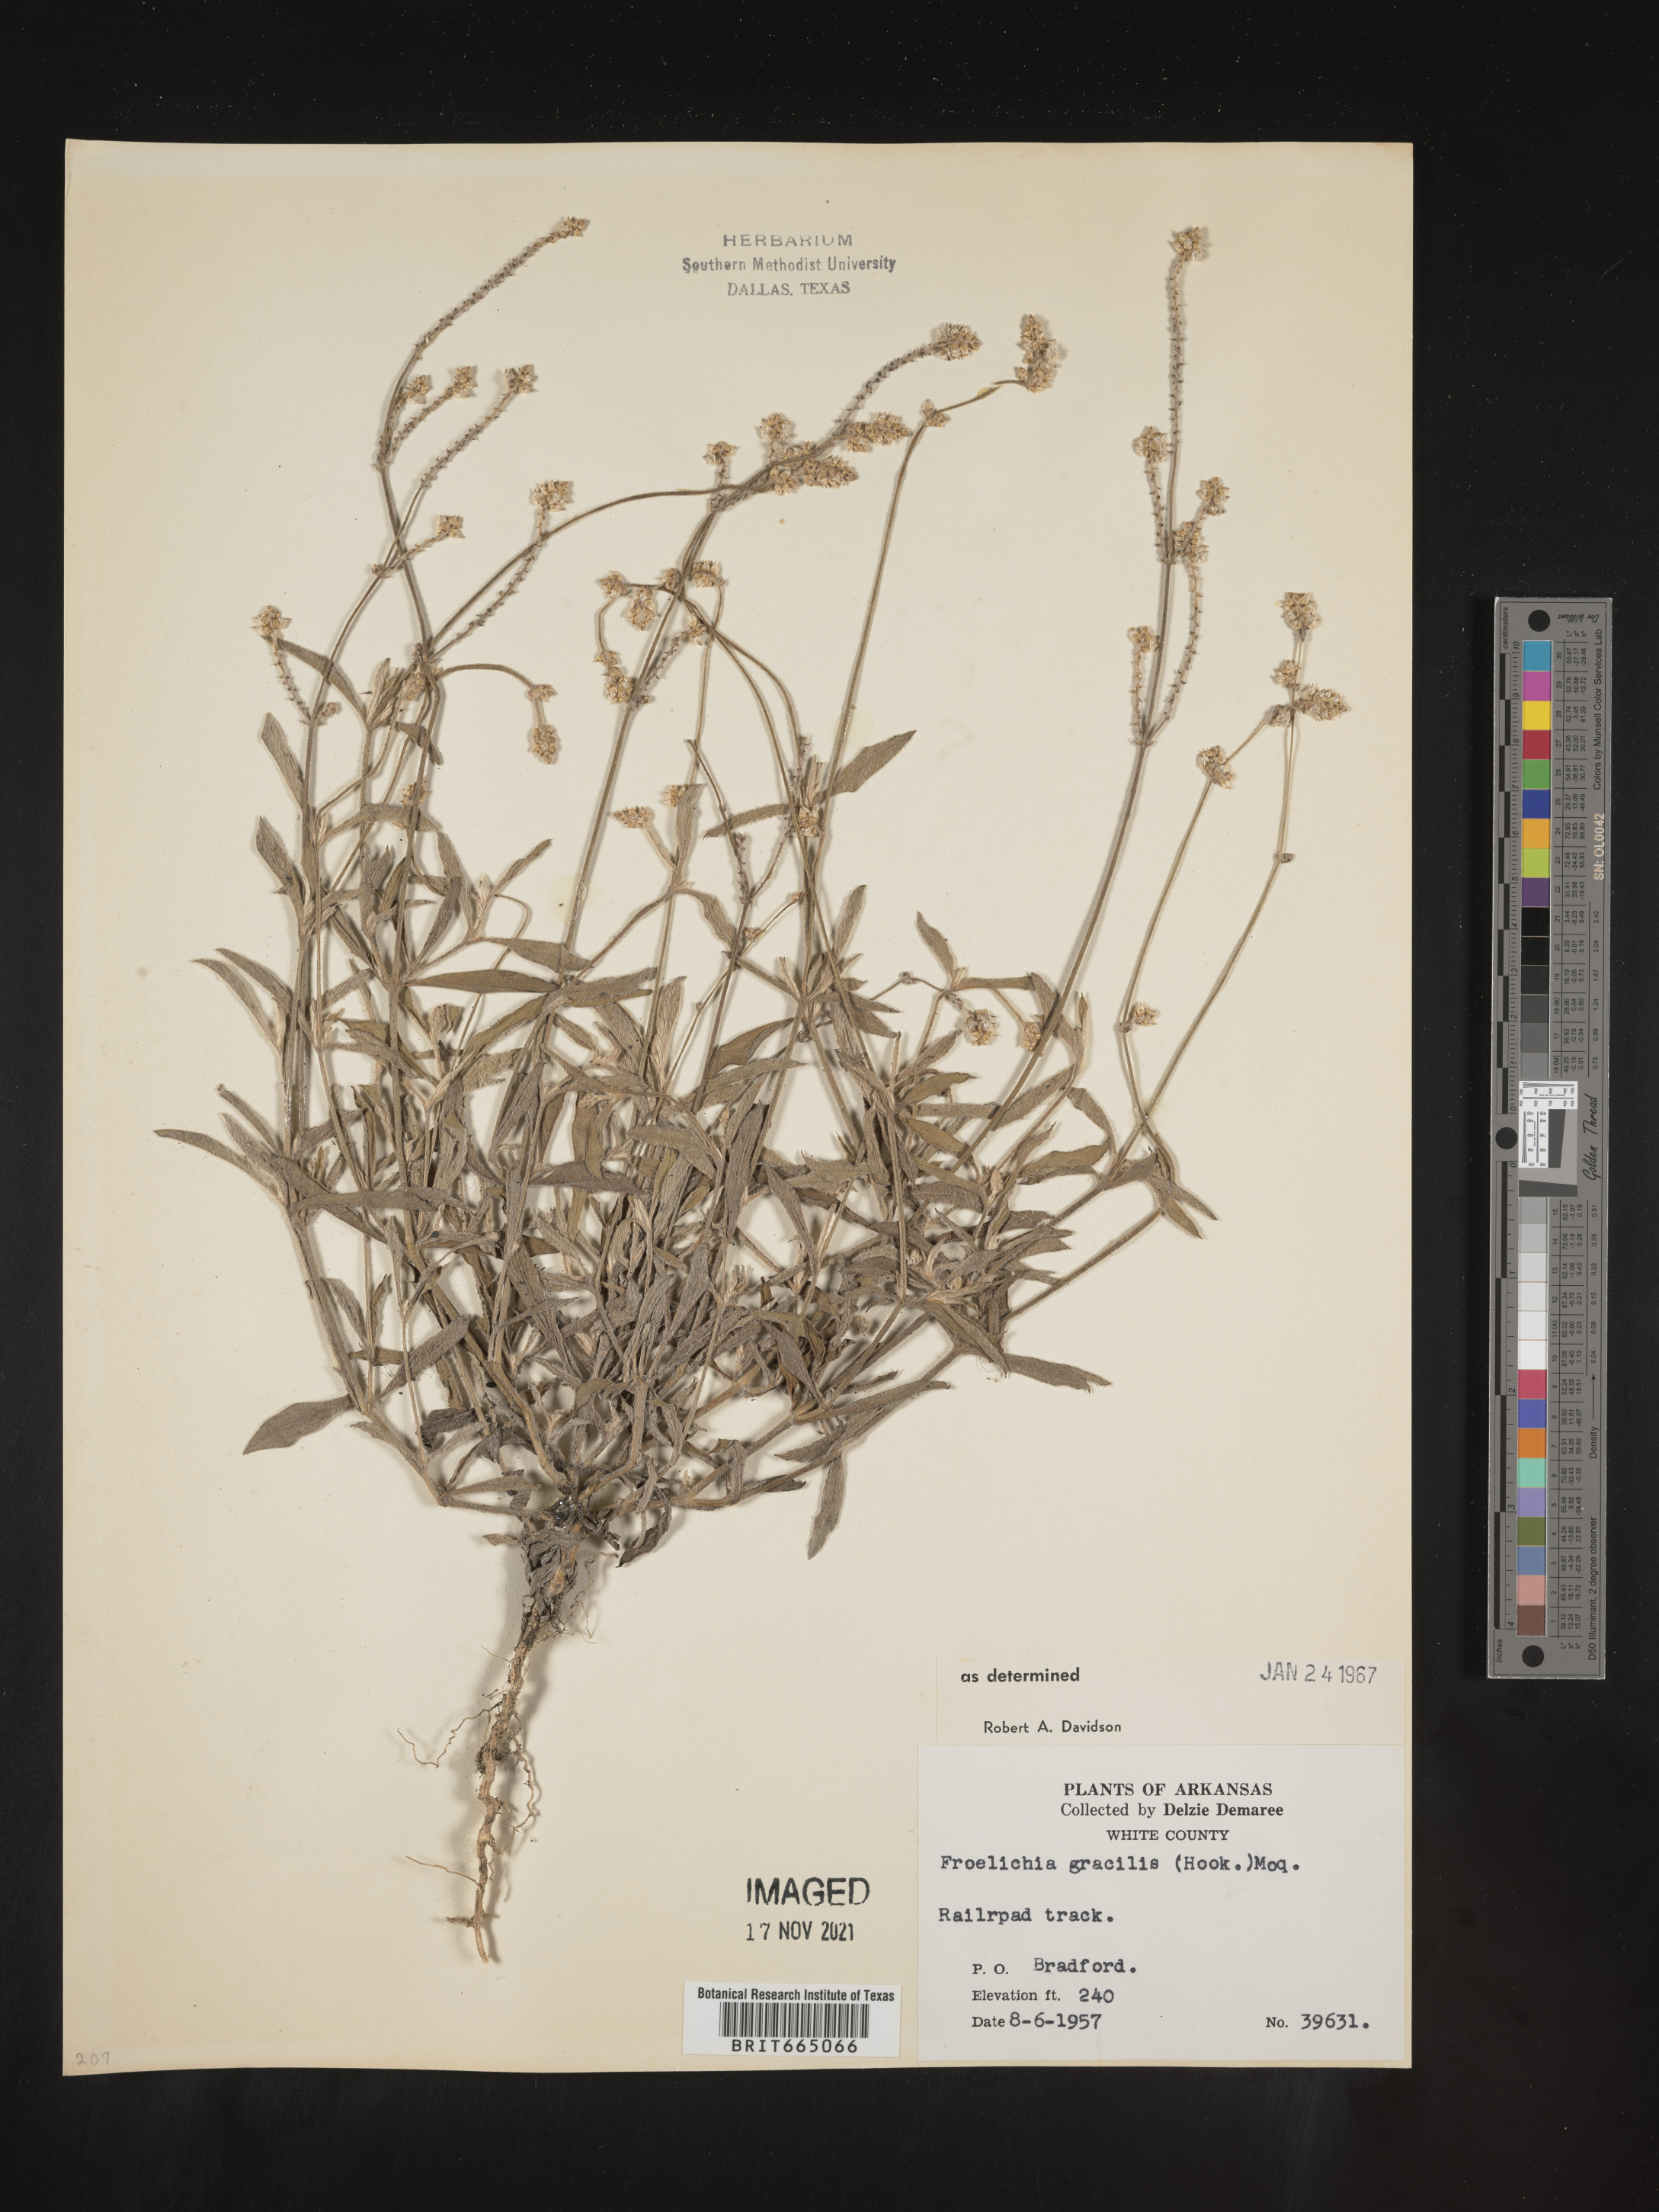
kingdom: Plantae
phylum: Tracheophyta
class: Magnoliopsida
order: Caryophyllales
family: Amaranthaceae
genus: Froelichia
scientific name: Froelichia gracilis
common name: Slender cottonweed
